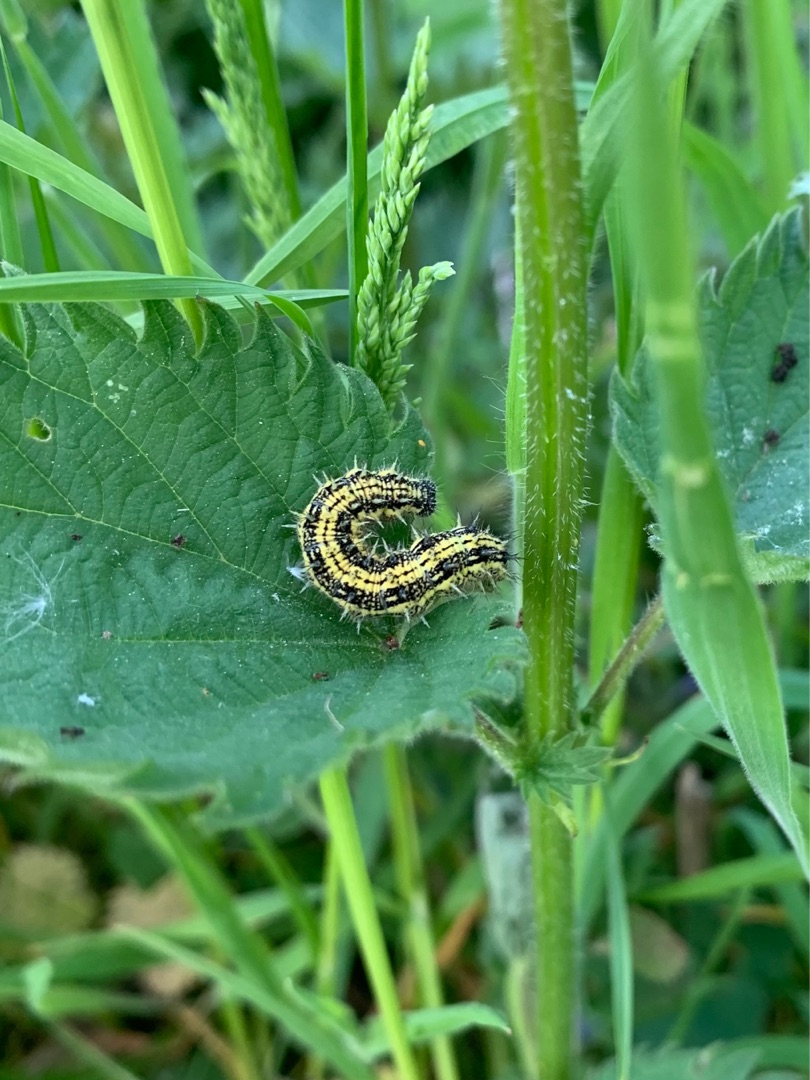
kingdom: Animalia
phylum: Arthropoda
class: Insecta
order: Lepidoptera
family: Nymphalidae
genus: Aglais
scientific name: Aglais urticae
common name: Nældens takvinge
